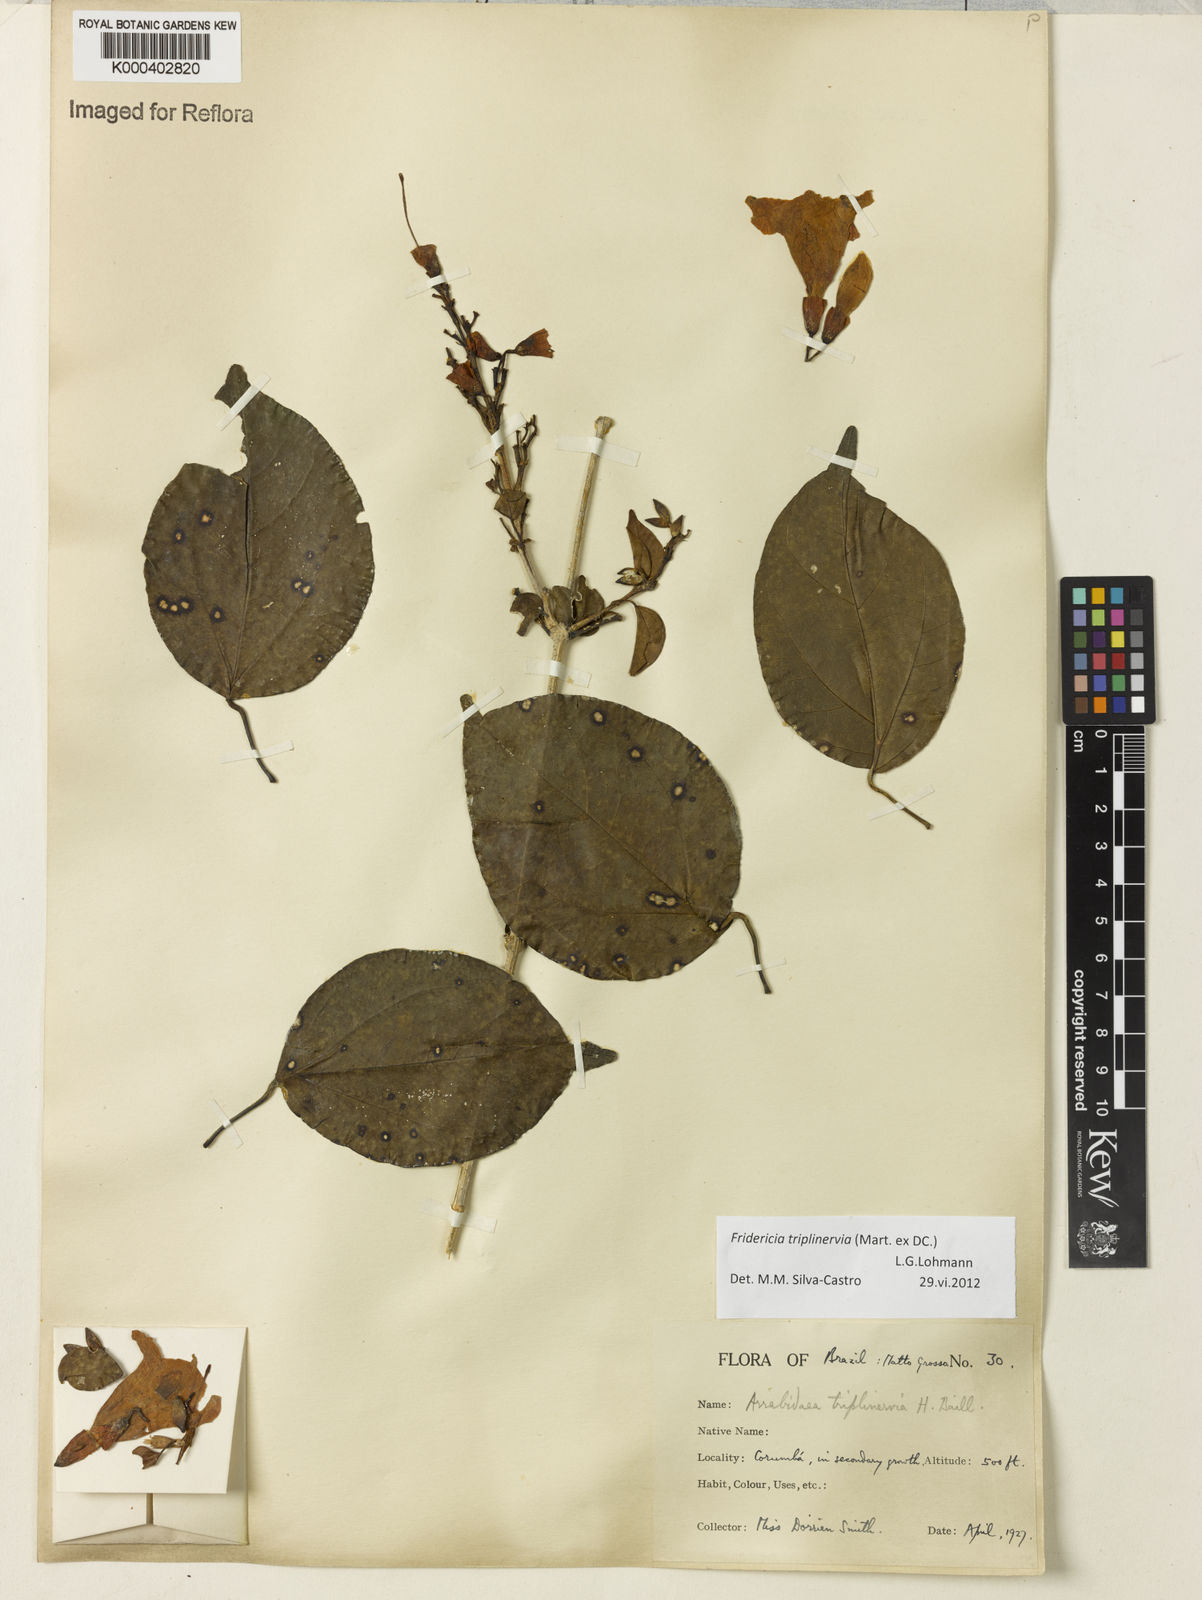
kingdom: Plantae
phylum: Tracheophyta
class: Magnoliopsida
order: Lamiales
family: Bignoniaceae
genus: Fridericia
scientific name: Fridericia triplinervia
